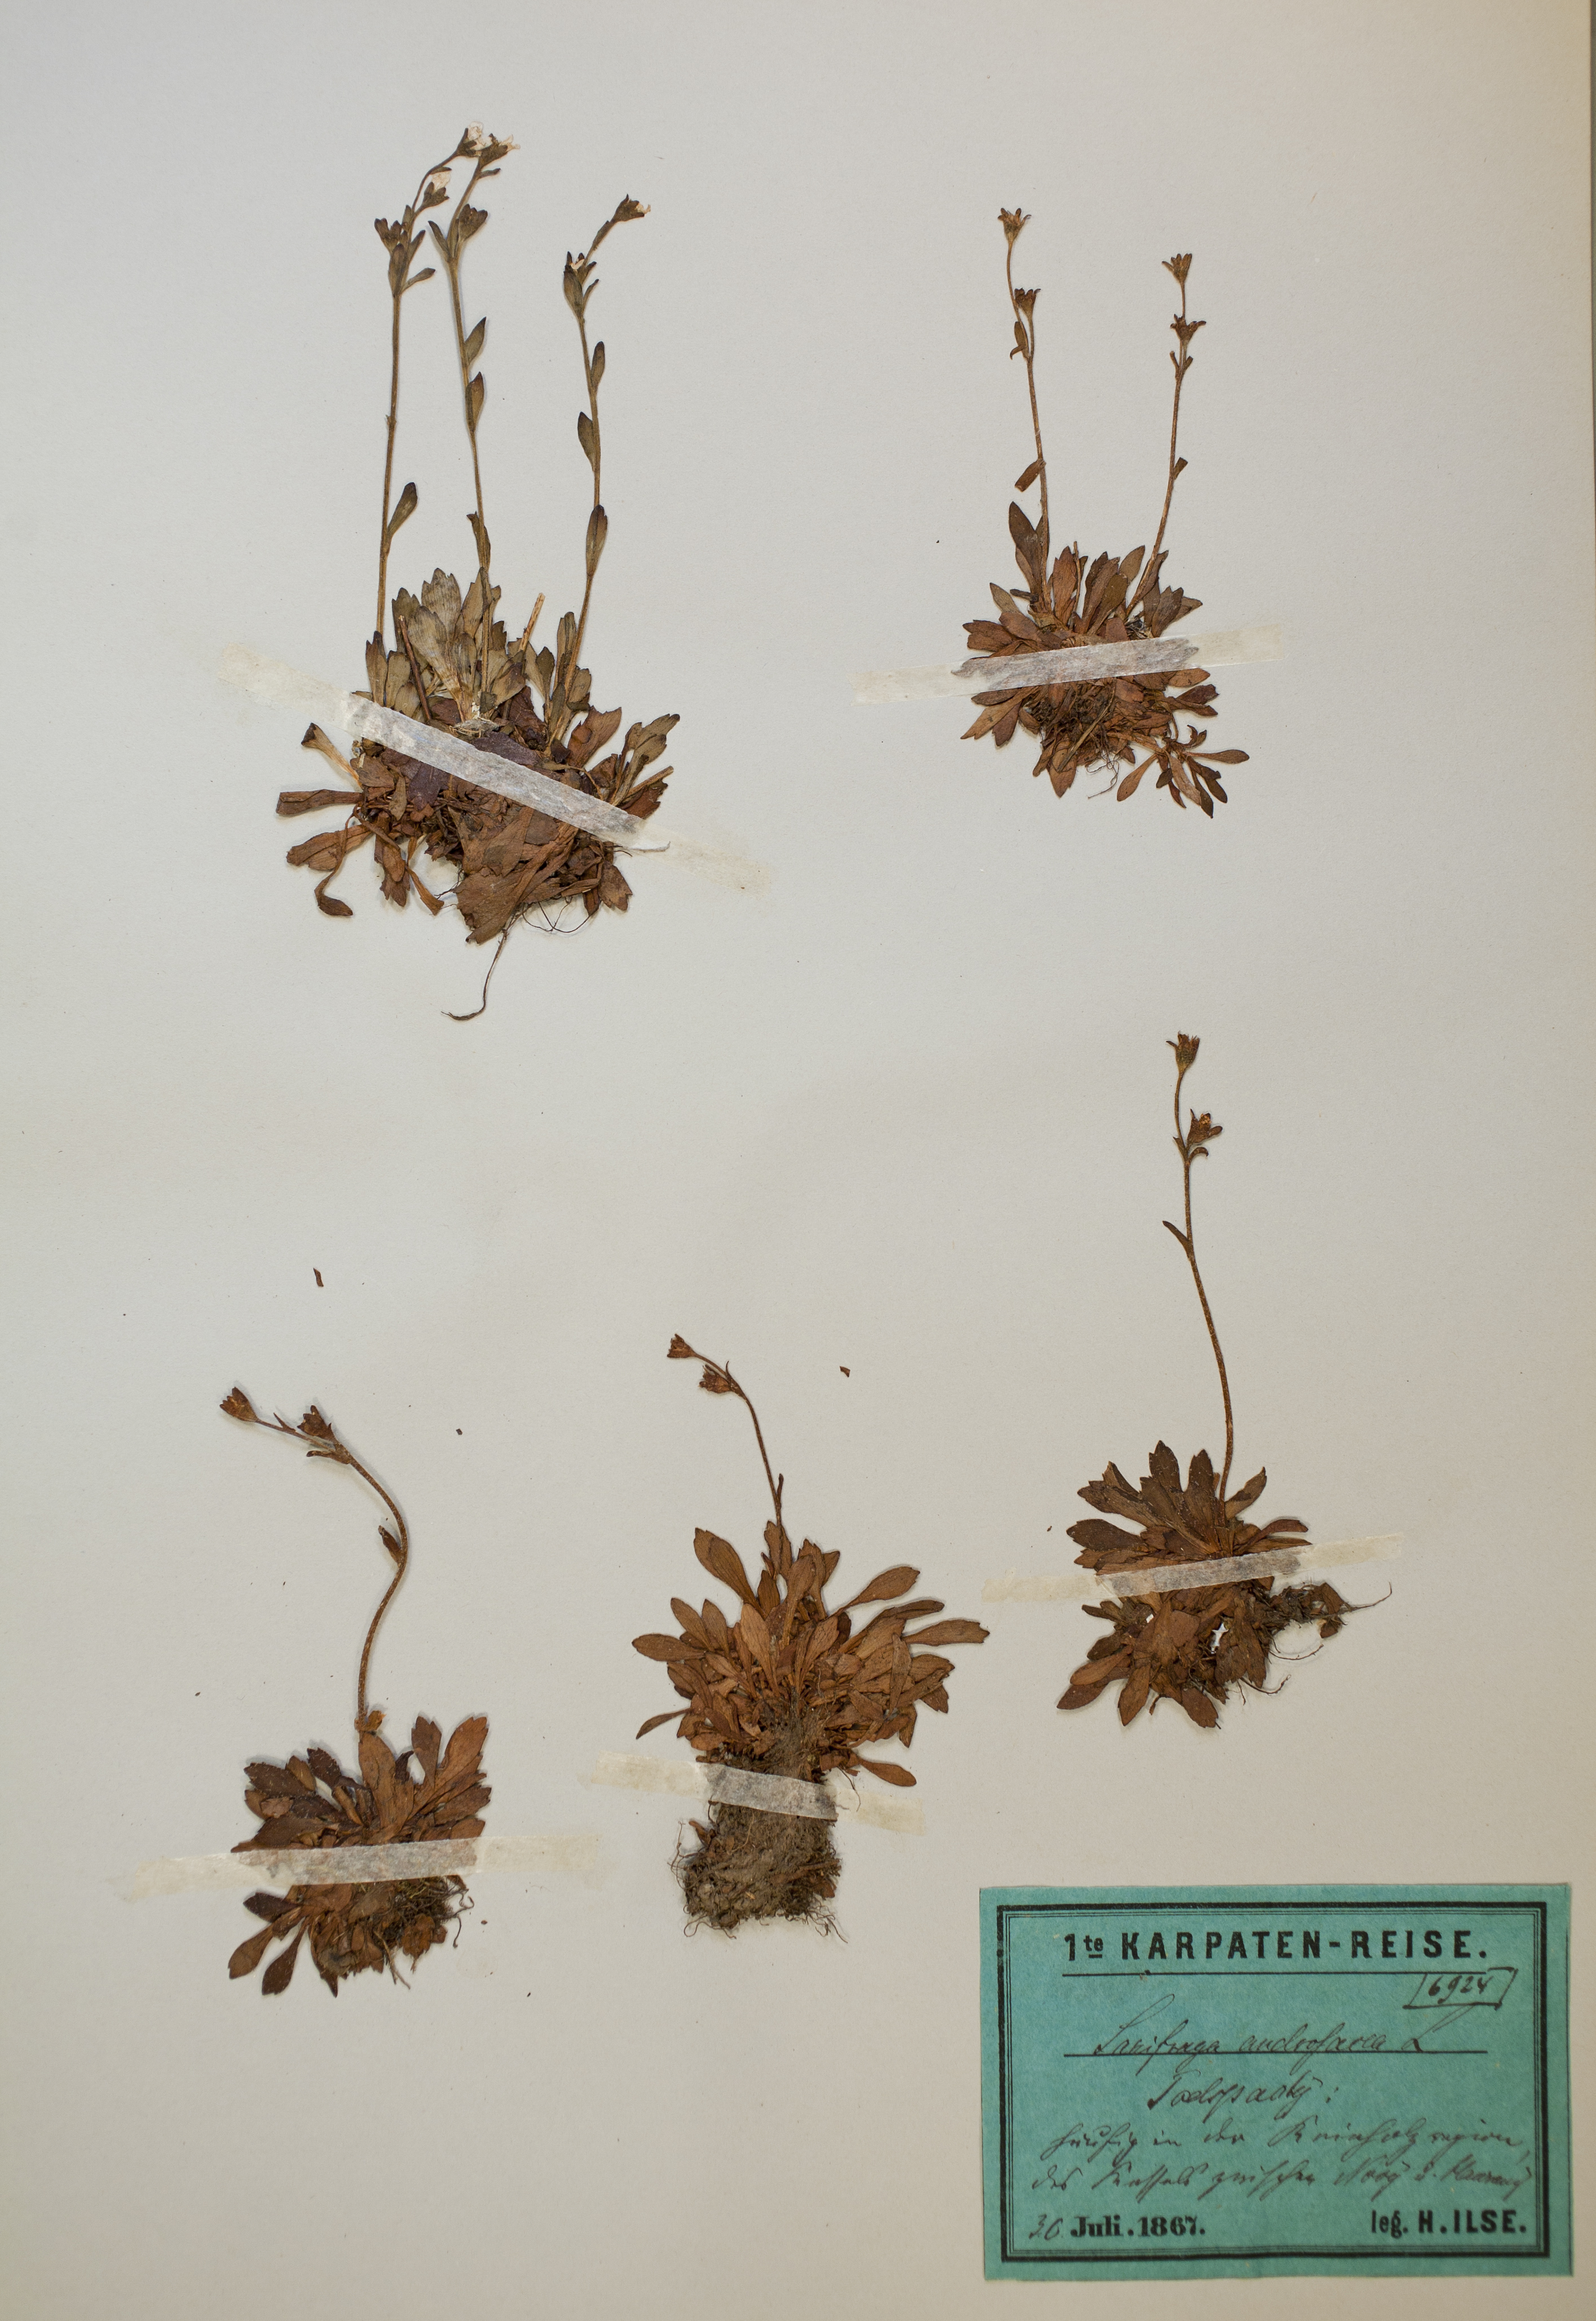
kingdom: Plantae
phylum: Tracheophyta
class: Magnoliopsida
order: Saxifragales
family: Saxifragaceae
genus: Saxifraga
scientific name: Saxifraga androsacea
